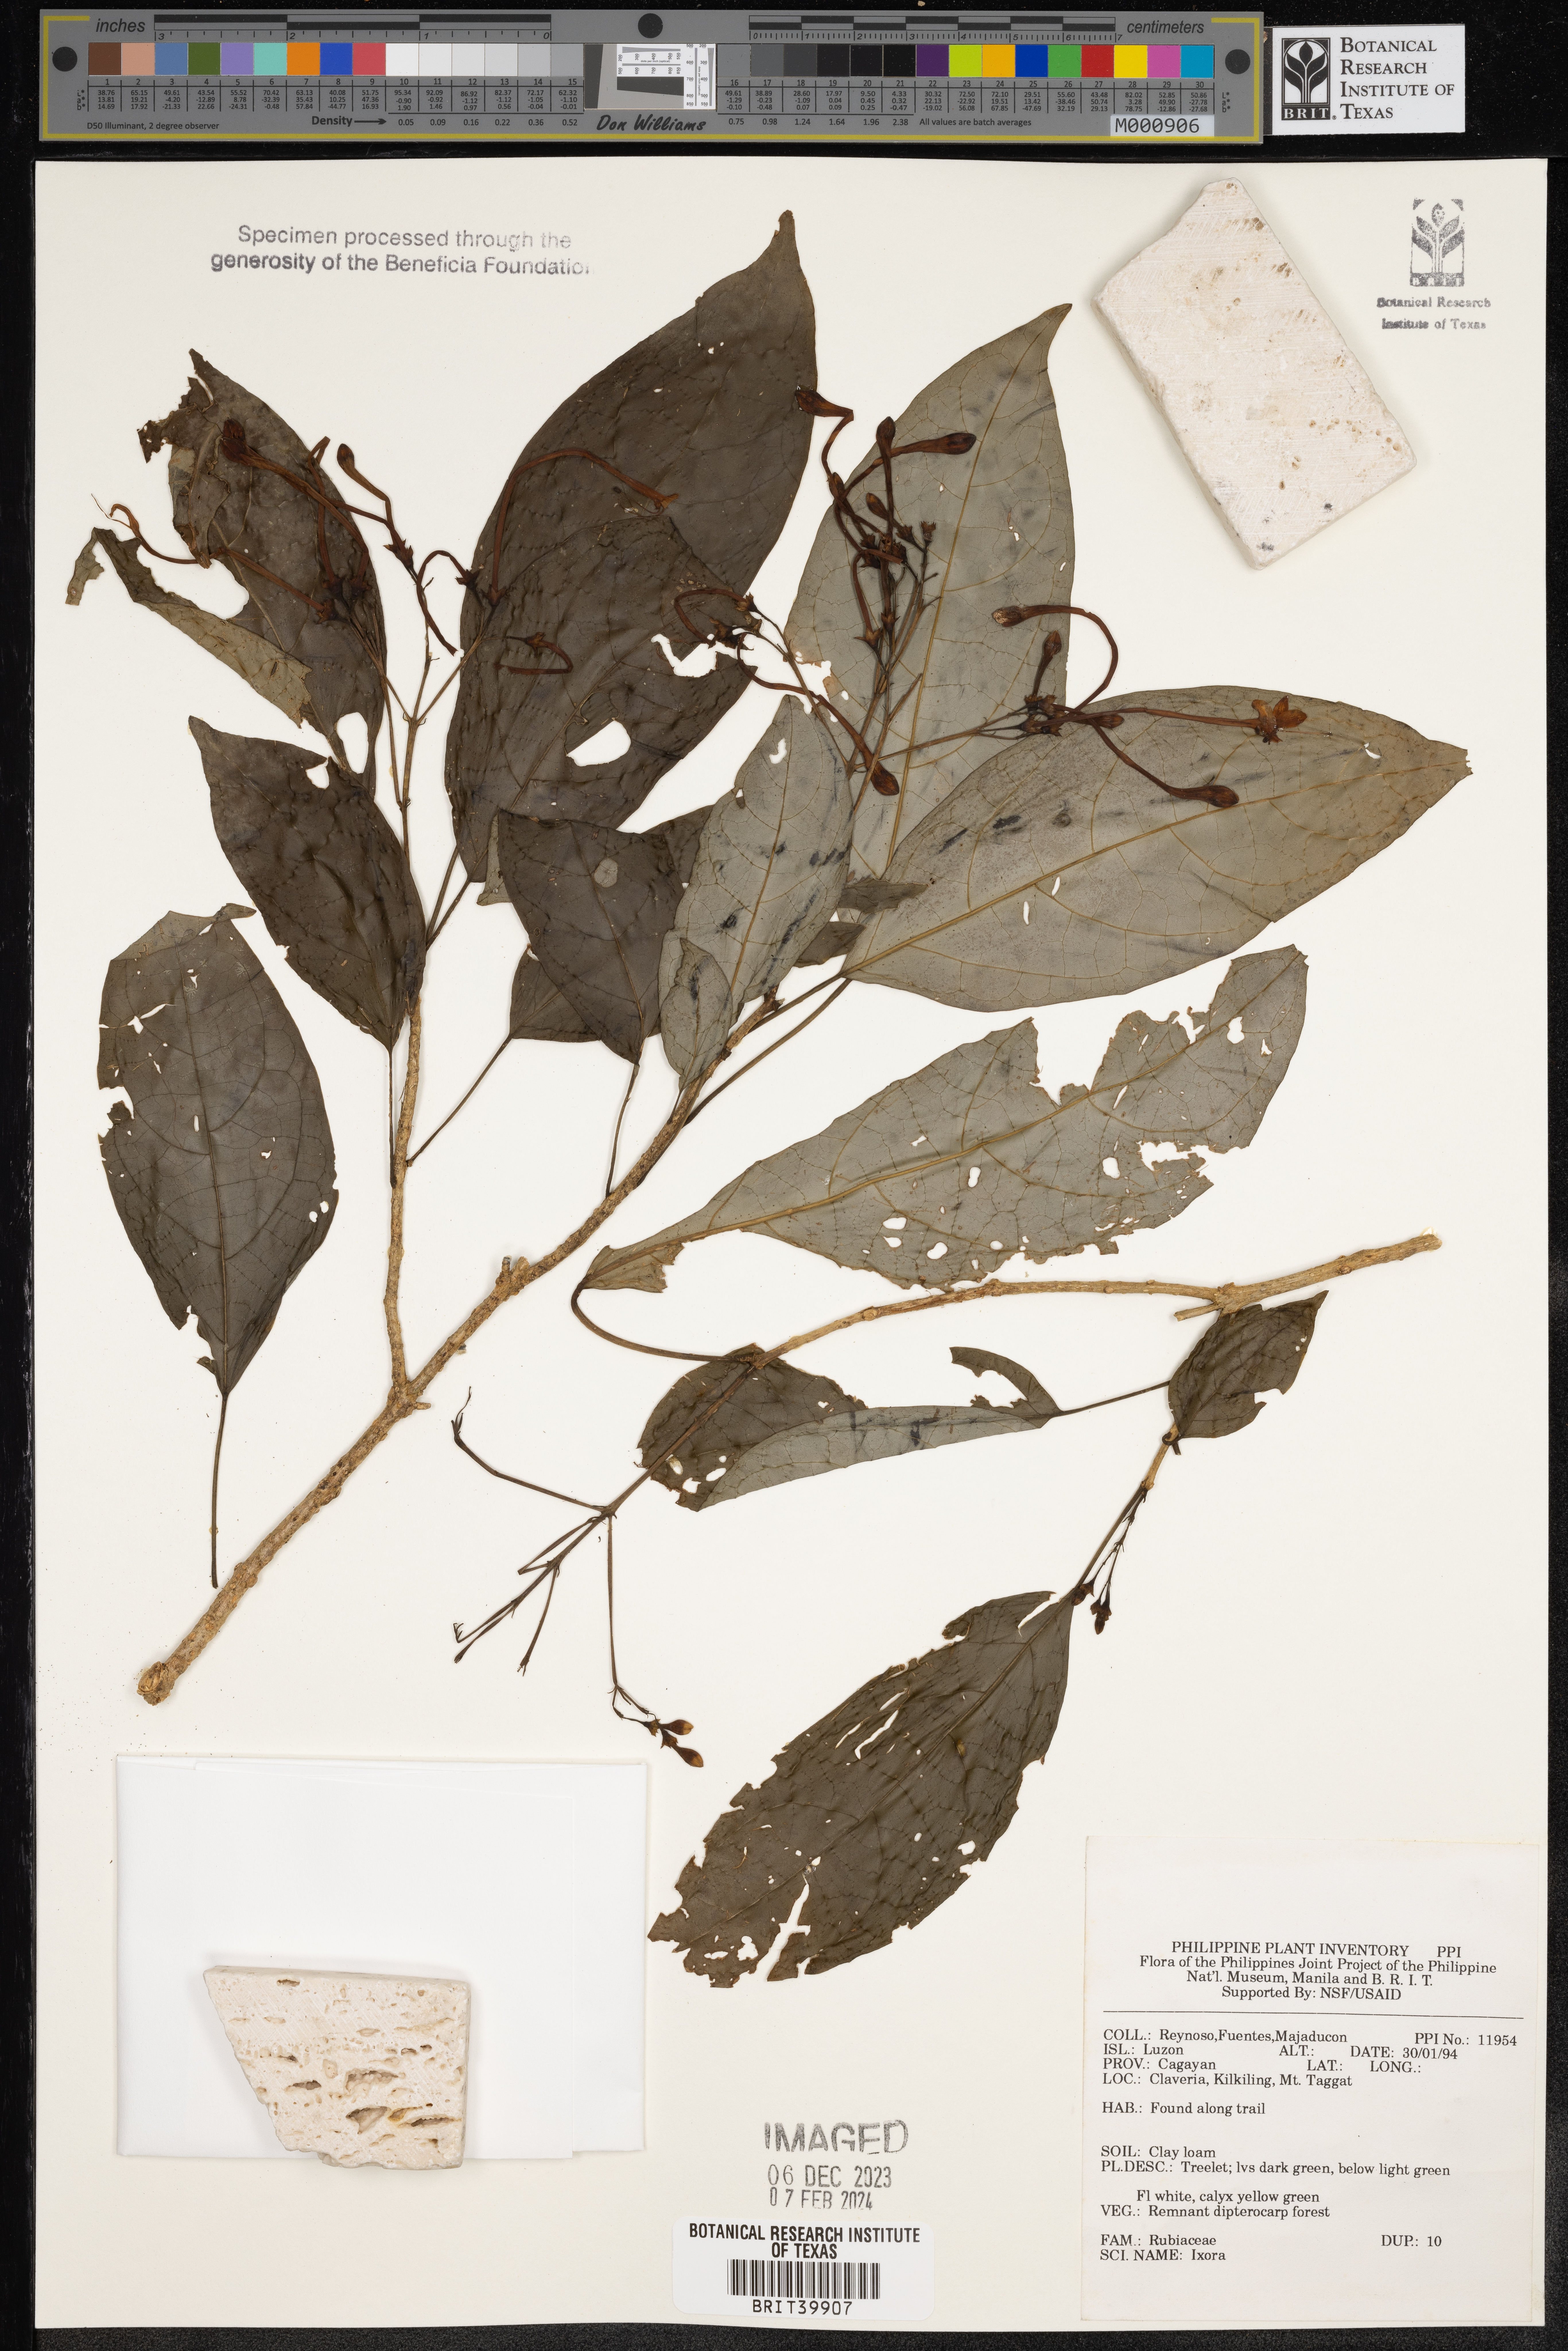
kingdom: Plantae
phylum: Tracheophyta
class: Magnoliopsida
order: Gentianales
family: Rubiaceae
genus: Ixora
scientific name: Ixora
